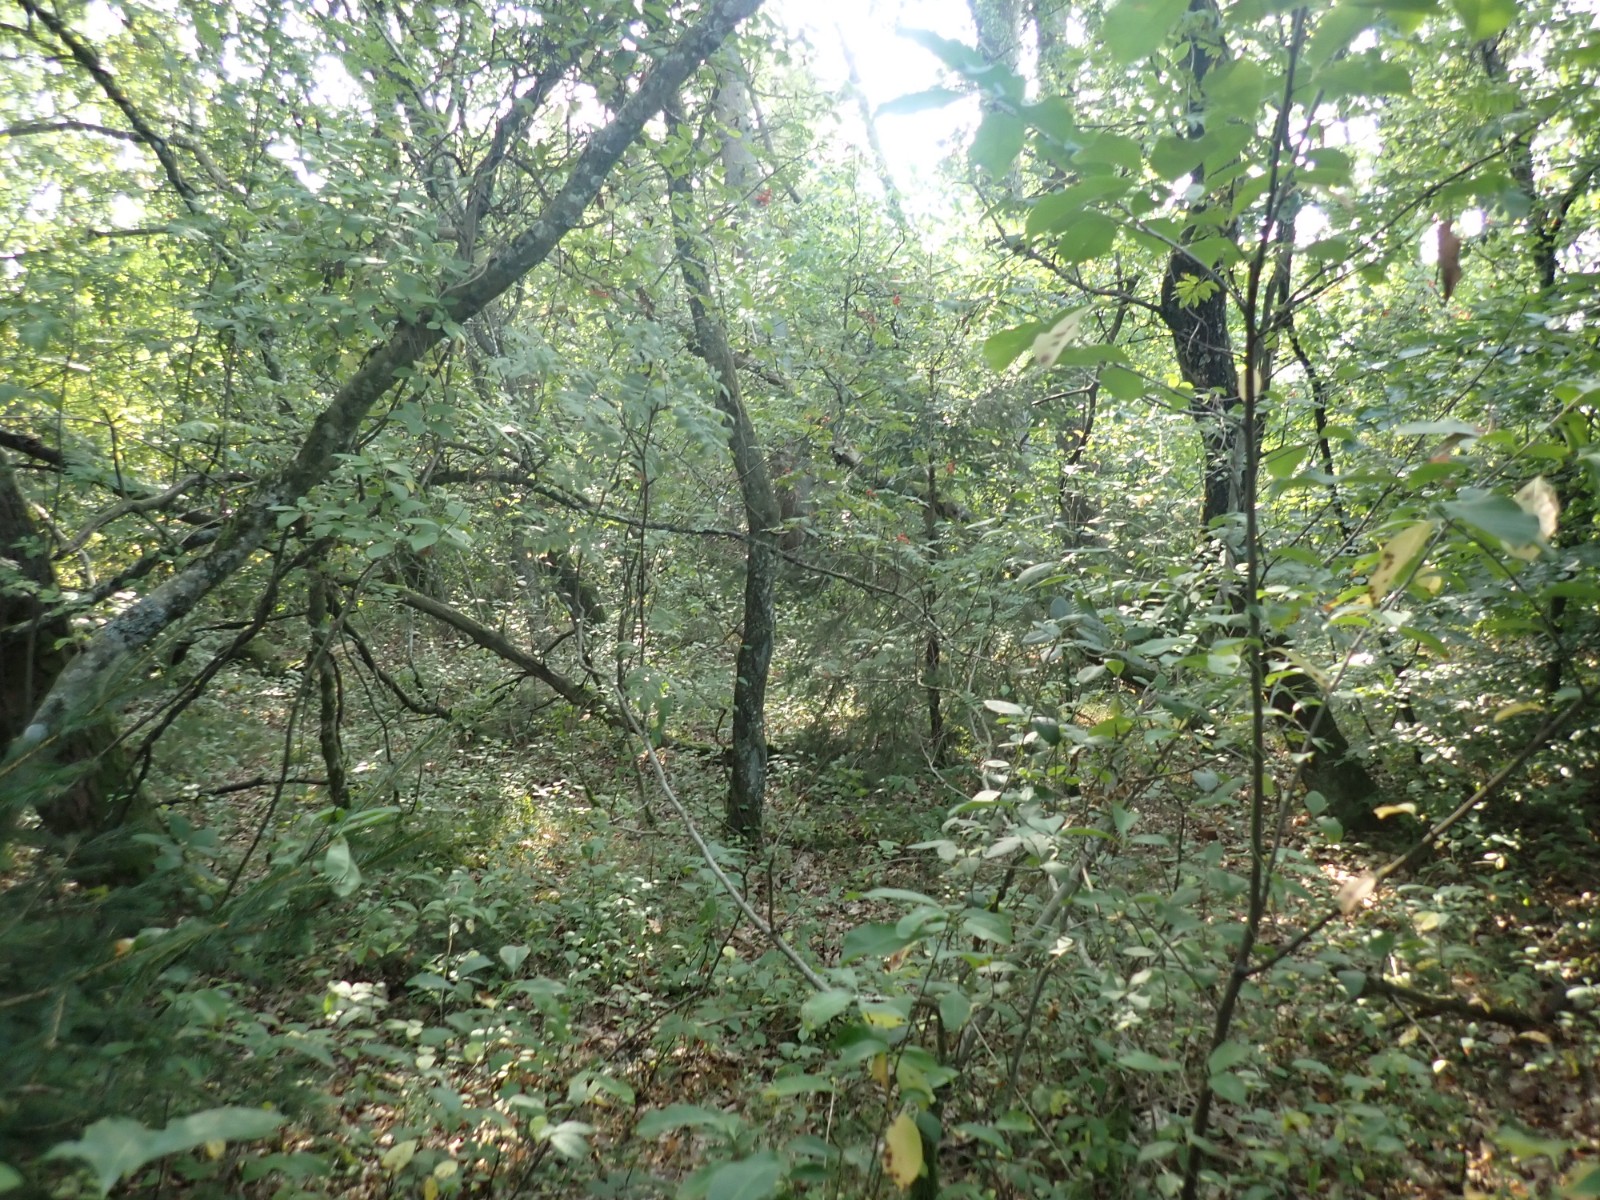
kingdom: Fungi
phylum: Basidiomycota
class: Agaricomycetes
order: Russulales
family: Russulaceae
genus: Lactarius
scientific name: Lactarius rufus
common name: rødbrun mælkehat
